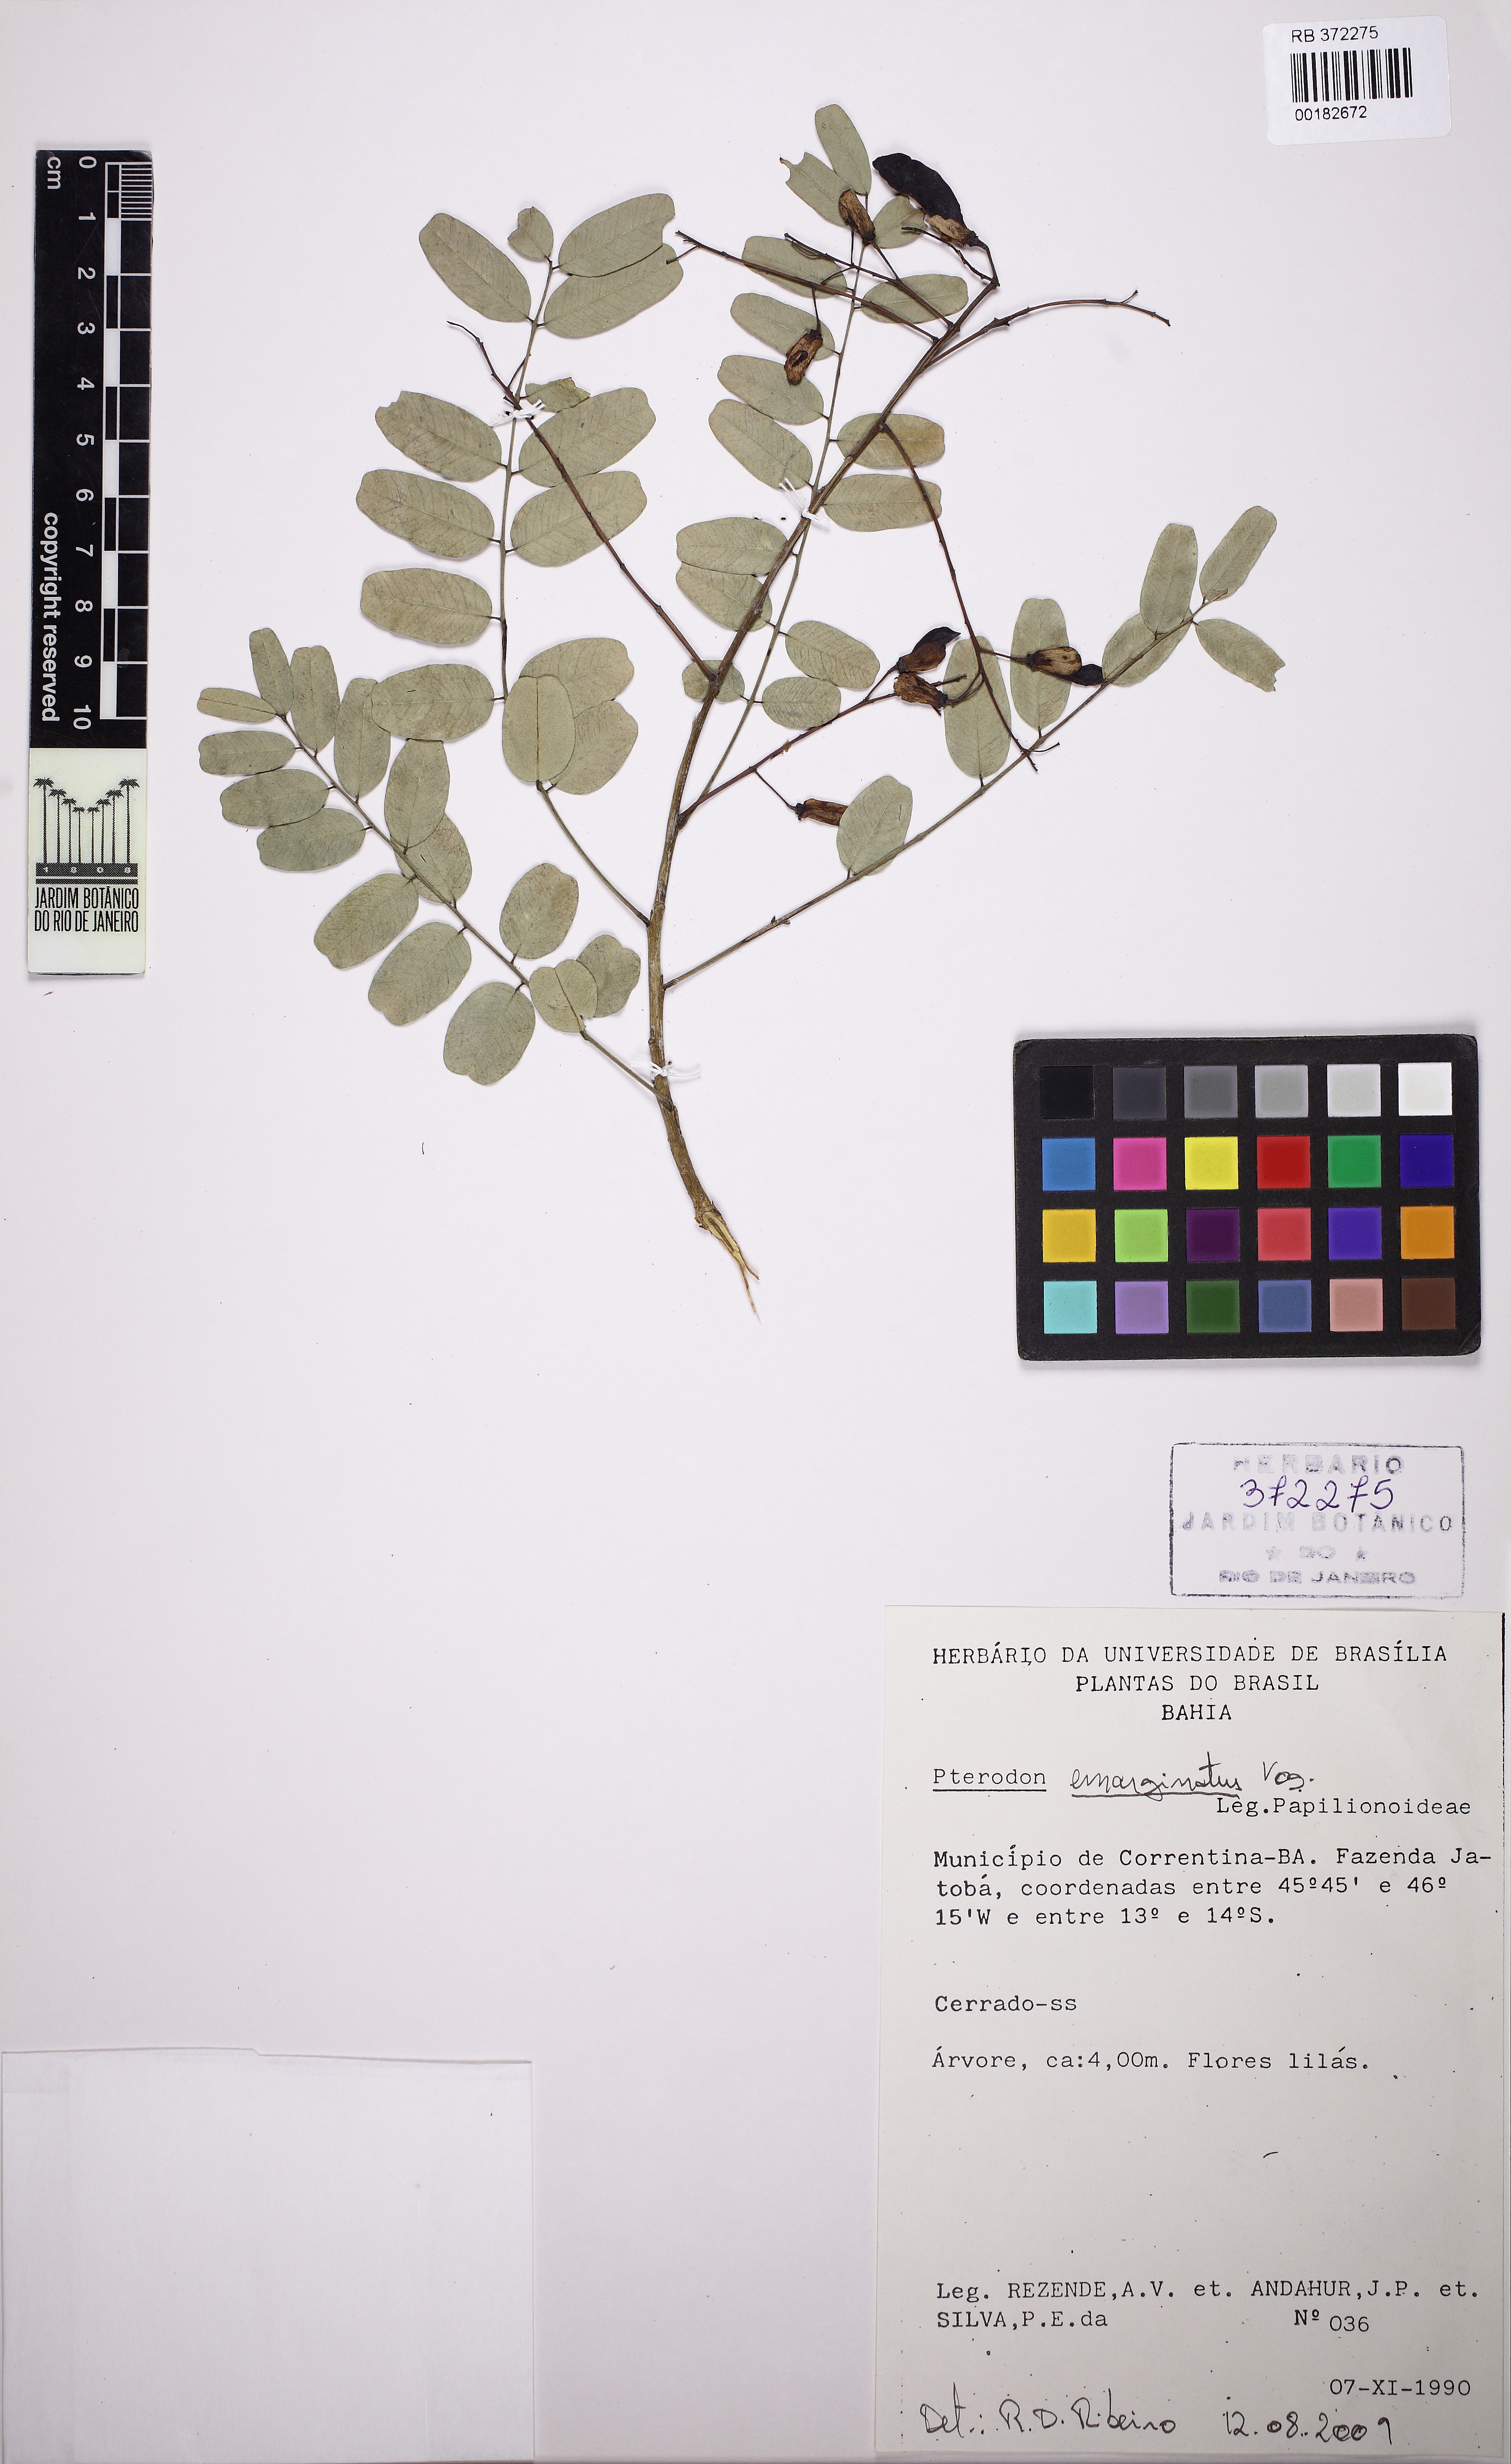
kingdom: Plantae
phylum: Tracheophyta
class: Magnoliopsida
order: Fabales
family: Fabaceae
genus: Pterodon
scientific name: Pterodon
